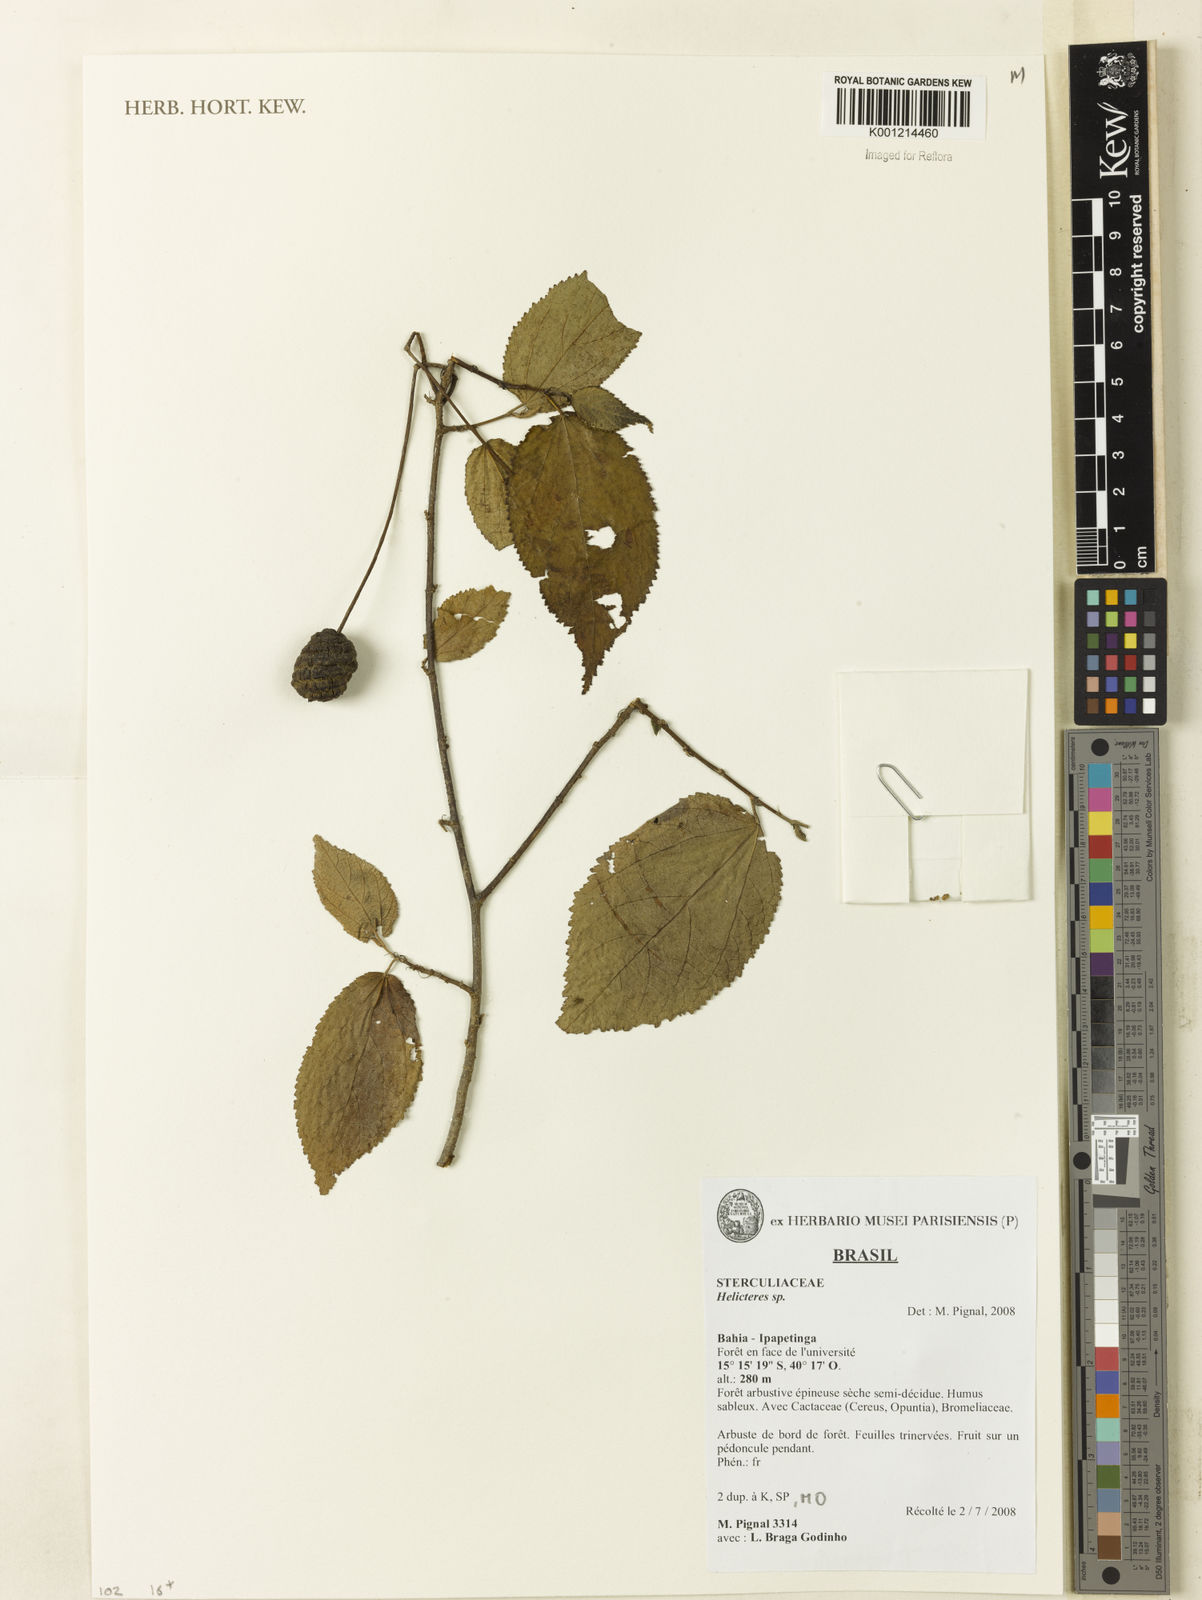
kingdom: Plantae
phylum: Tracheophyta
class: Magnoliopsida
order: Malvales
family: Malvaceae
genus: Helicteres
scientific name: Helicteres
